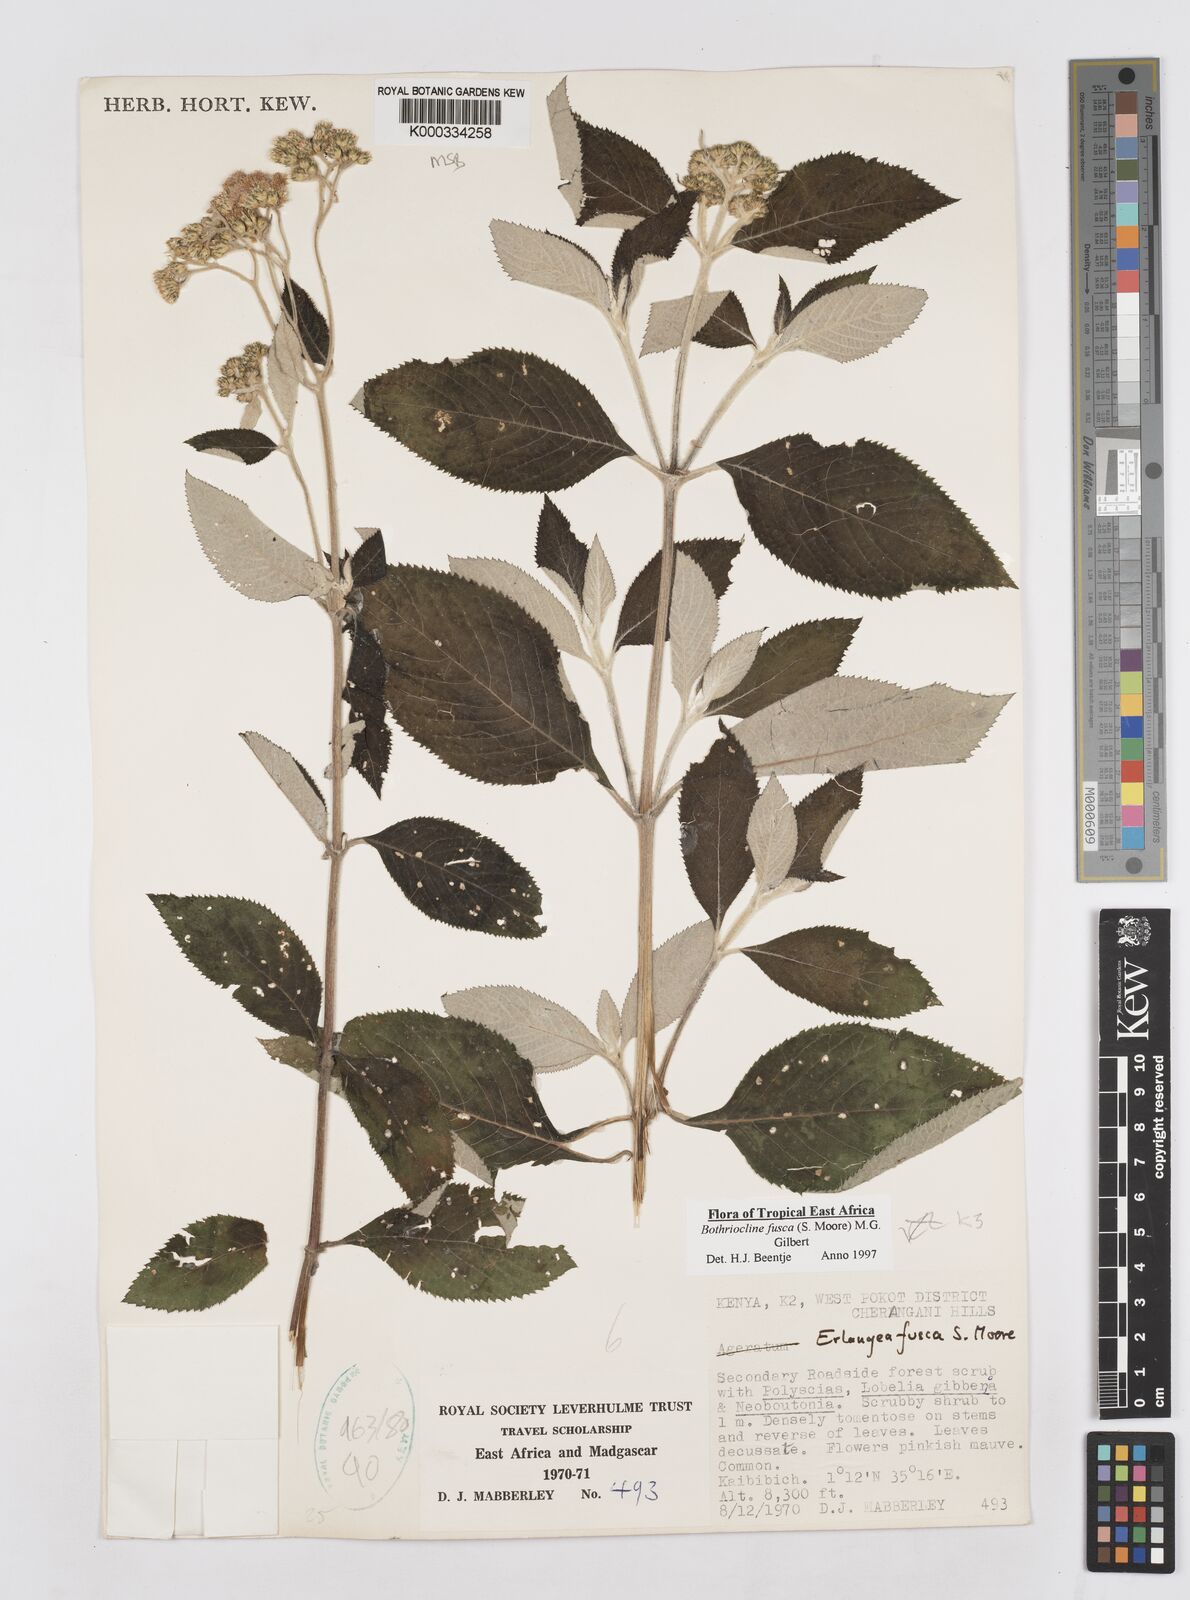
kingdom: Plantae
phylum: Tracheophyta
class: Magnoliopsida
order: Asterales
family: Asteraceae
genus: Bothriocline
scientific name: Bothriocline fusca
